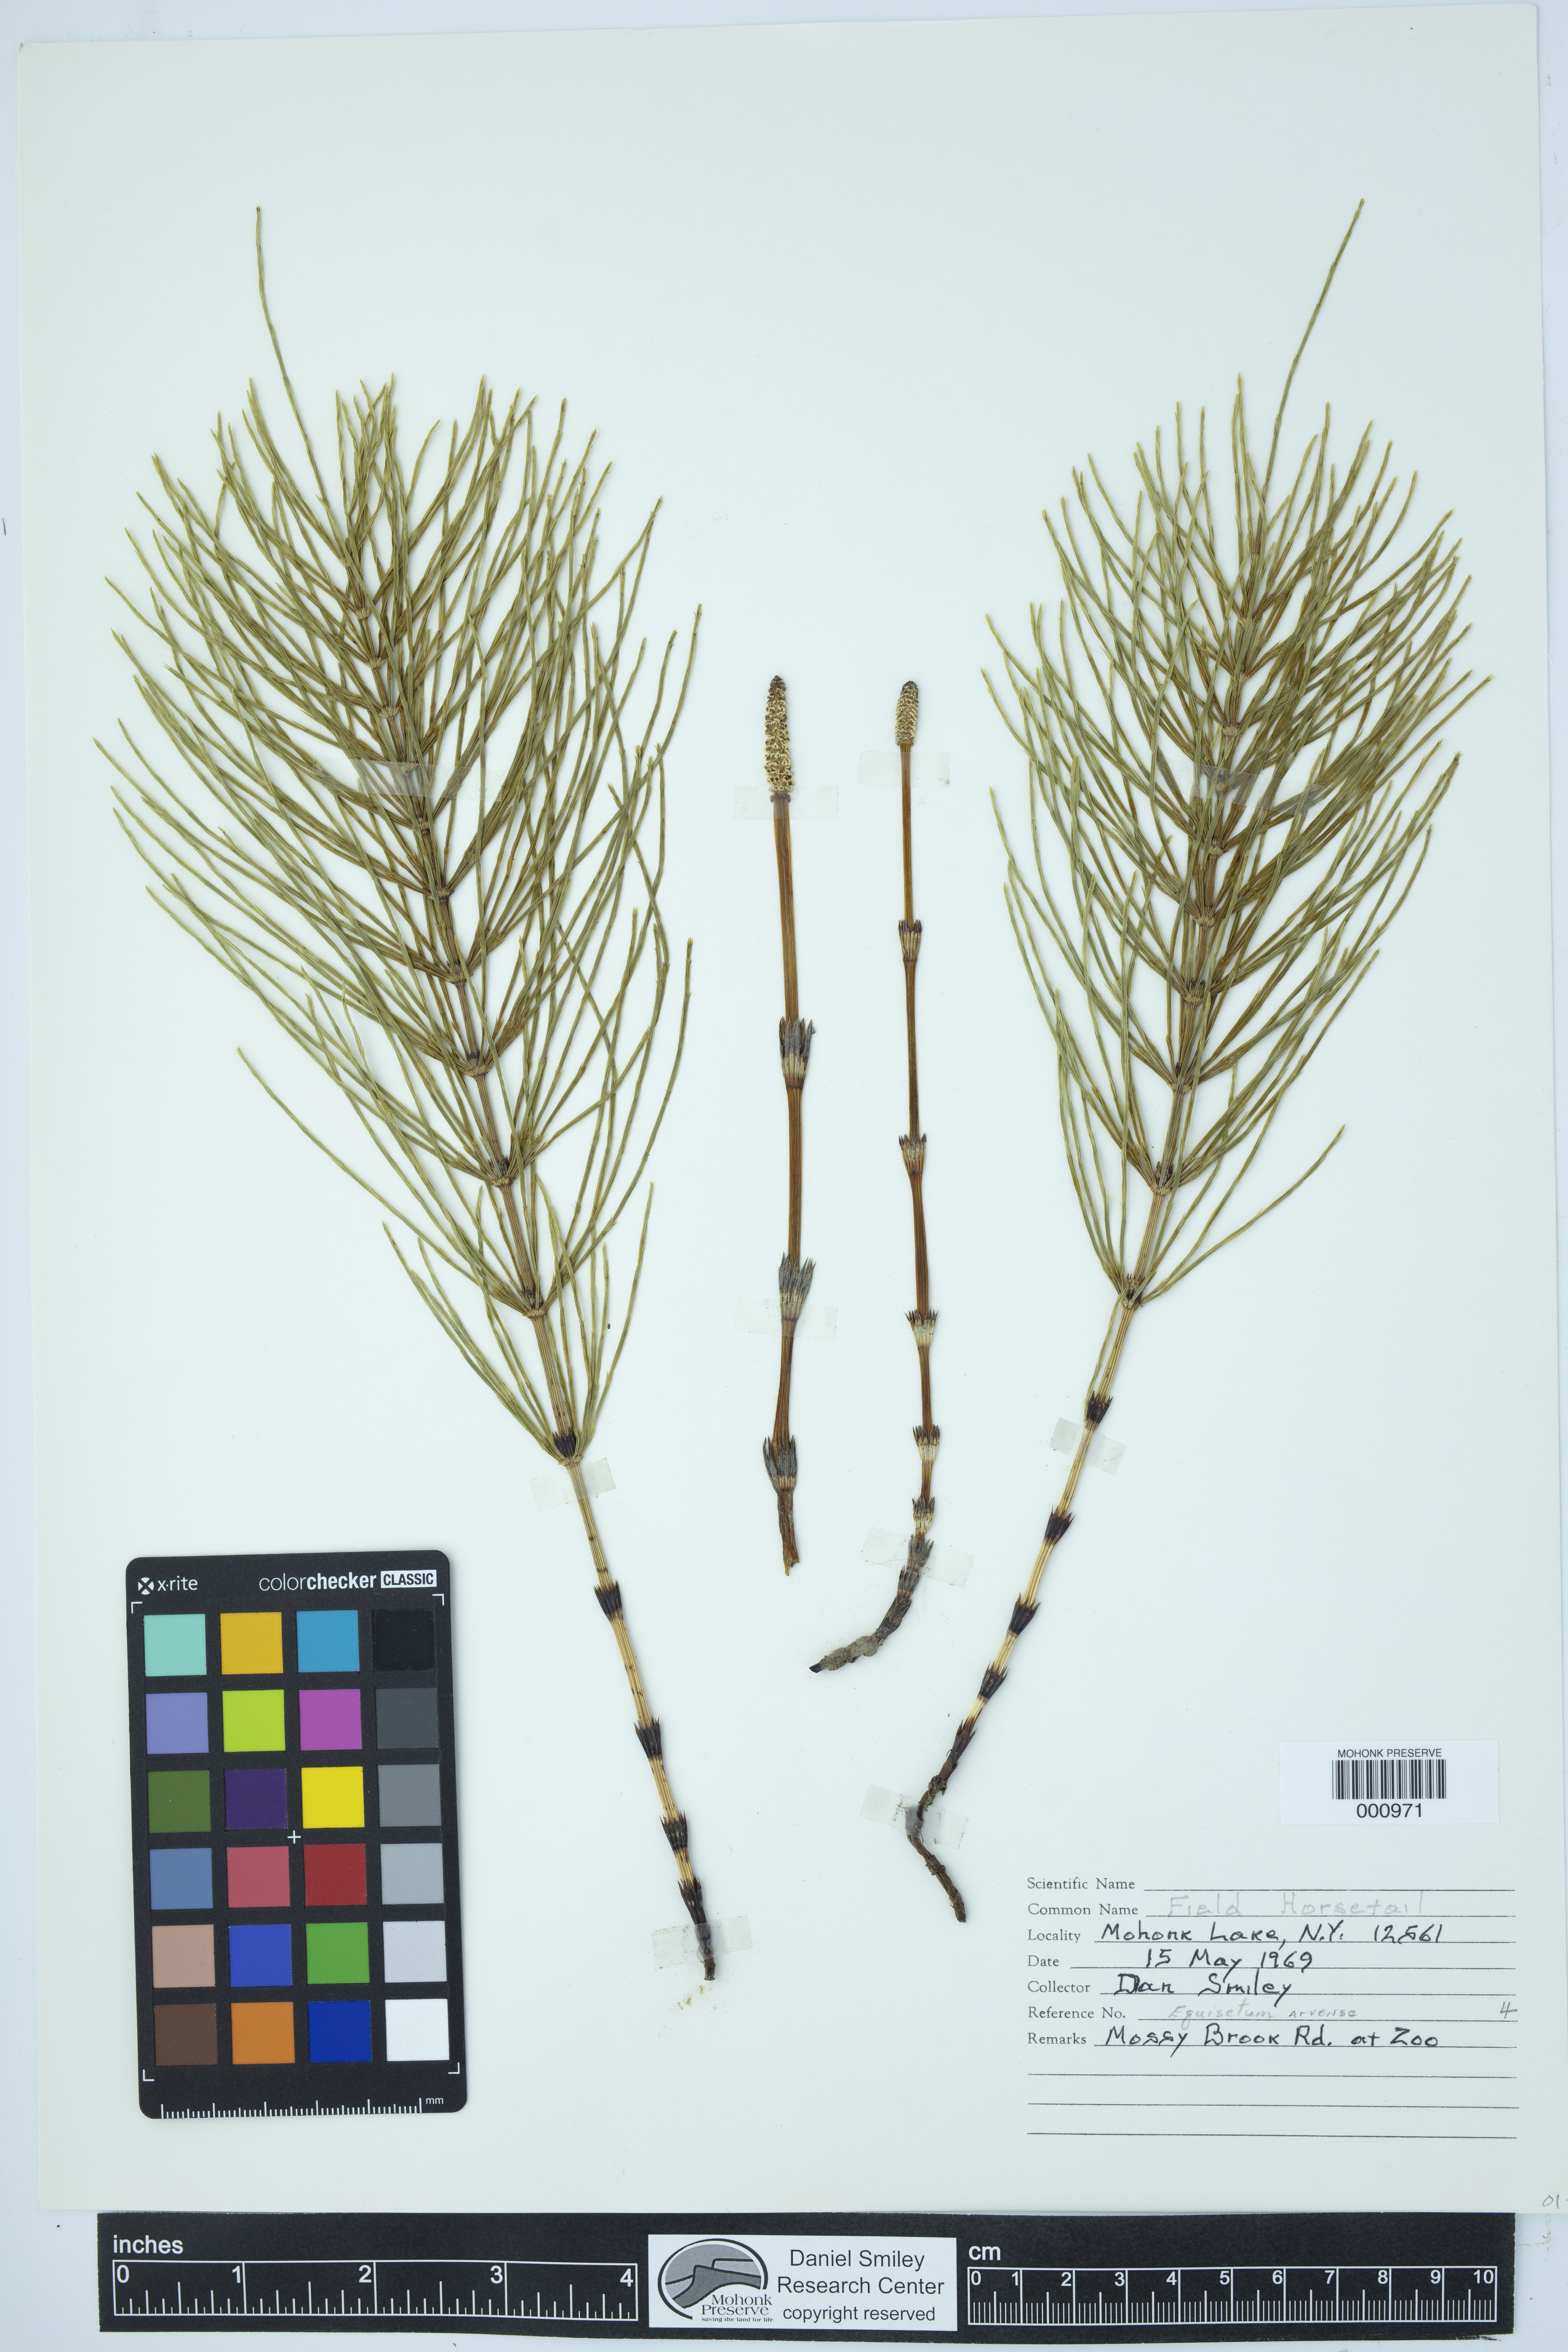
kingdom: Plantae
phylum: Tracheophyta
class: Polypodiopsida
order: Equisetales
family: Equisetaceae
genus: Equisetum
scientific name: Equisetum arvense
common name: Field horsetail
